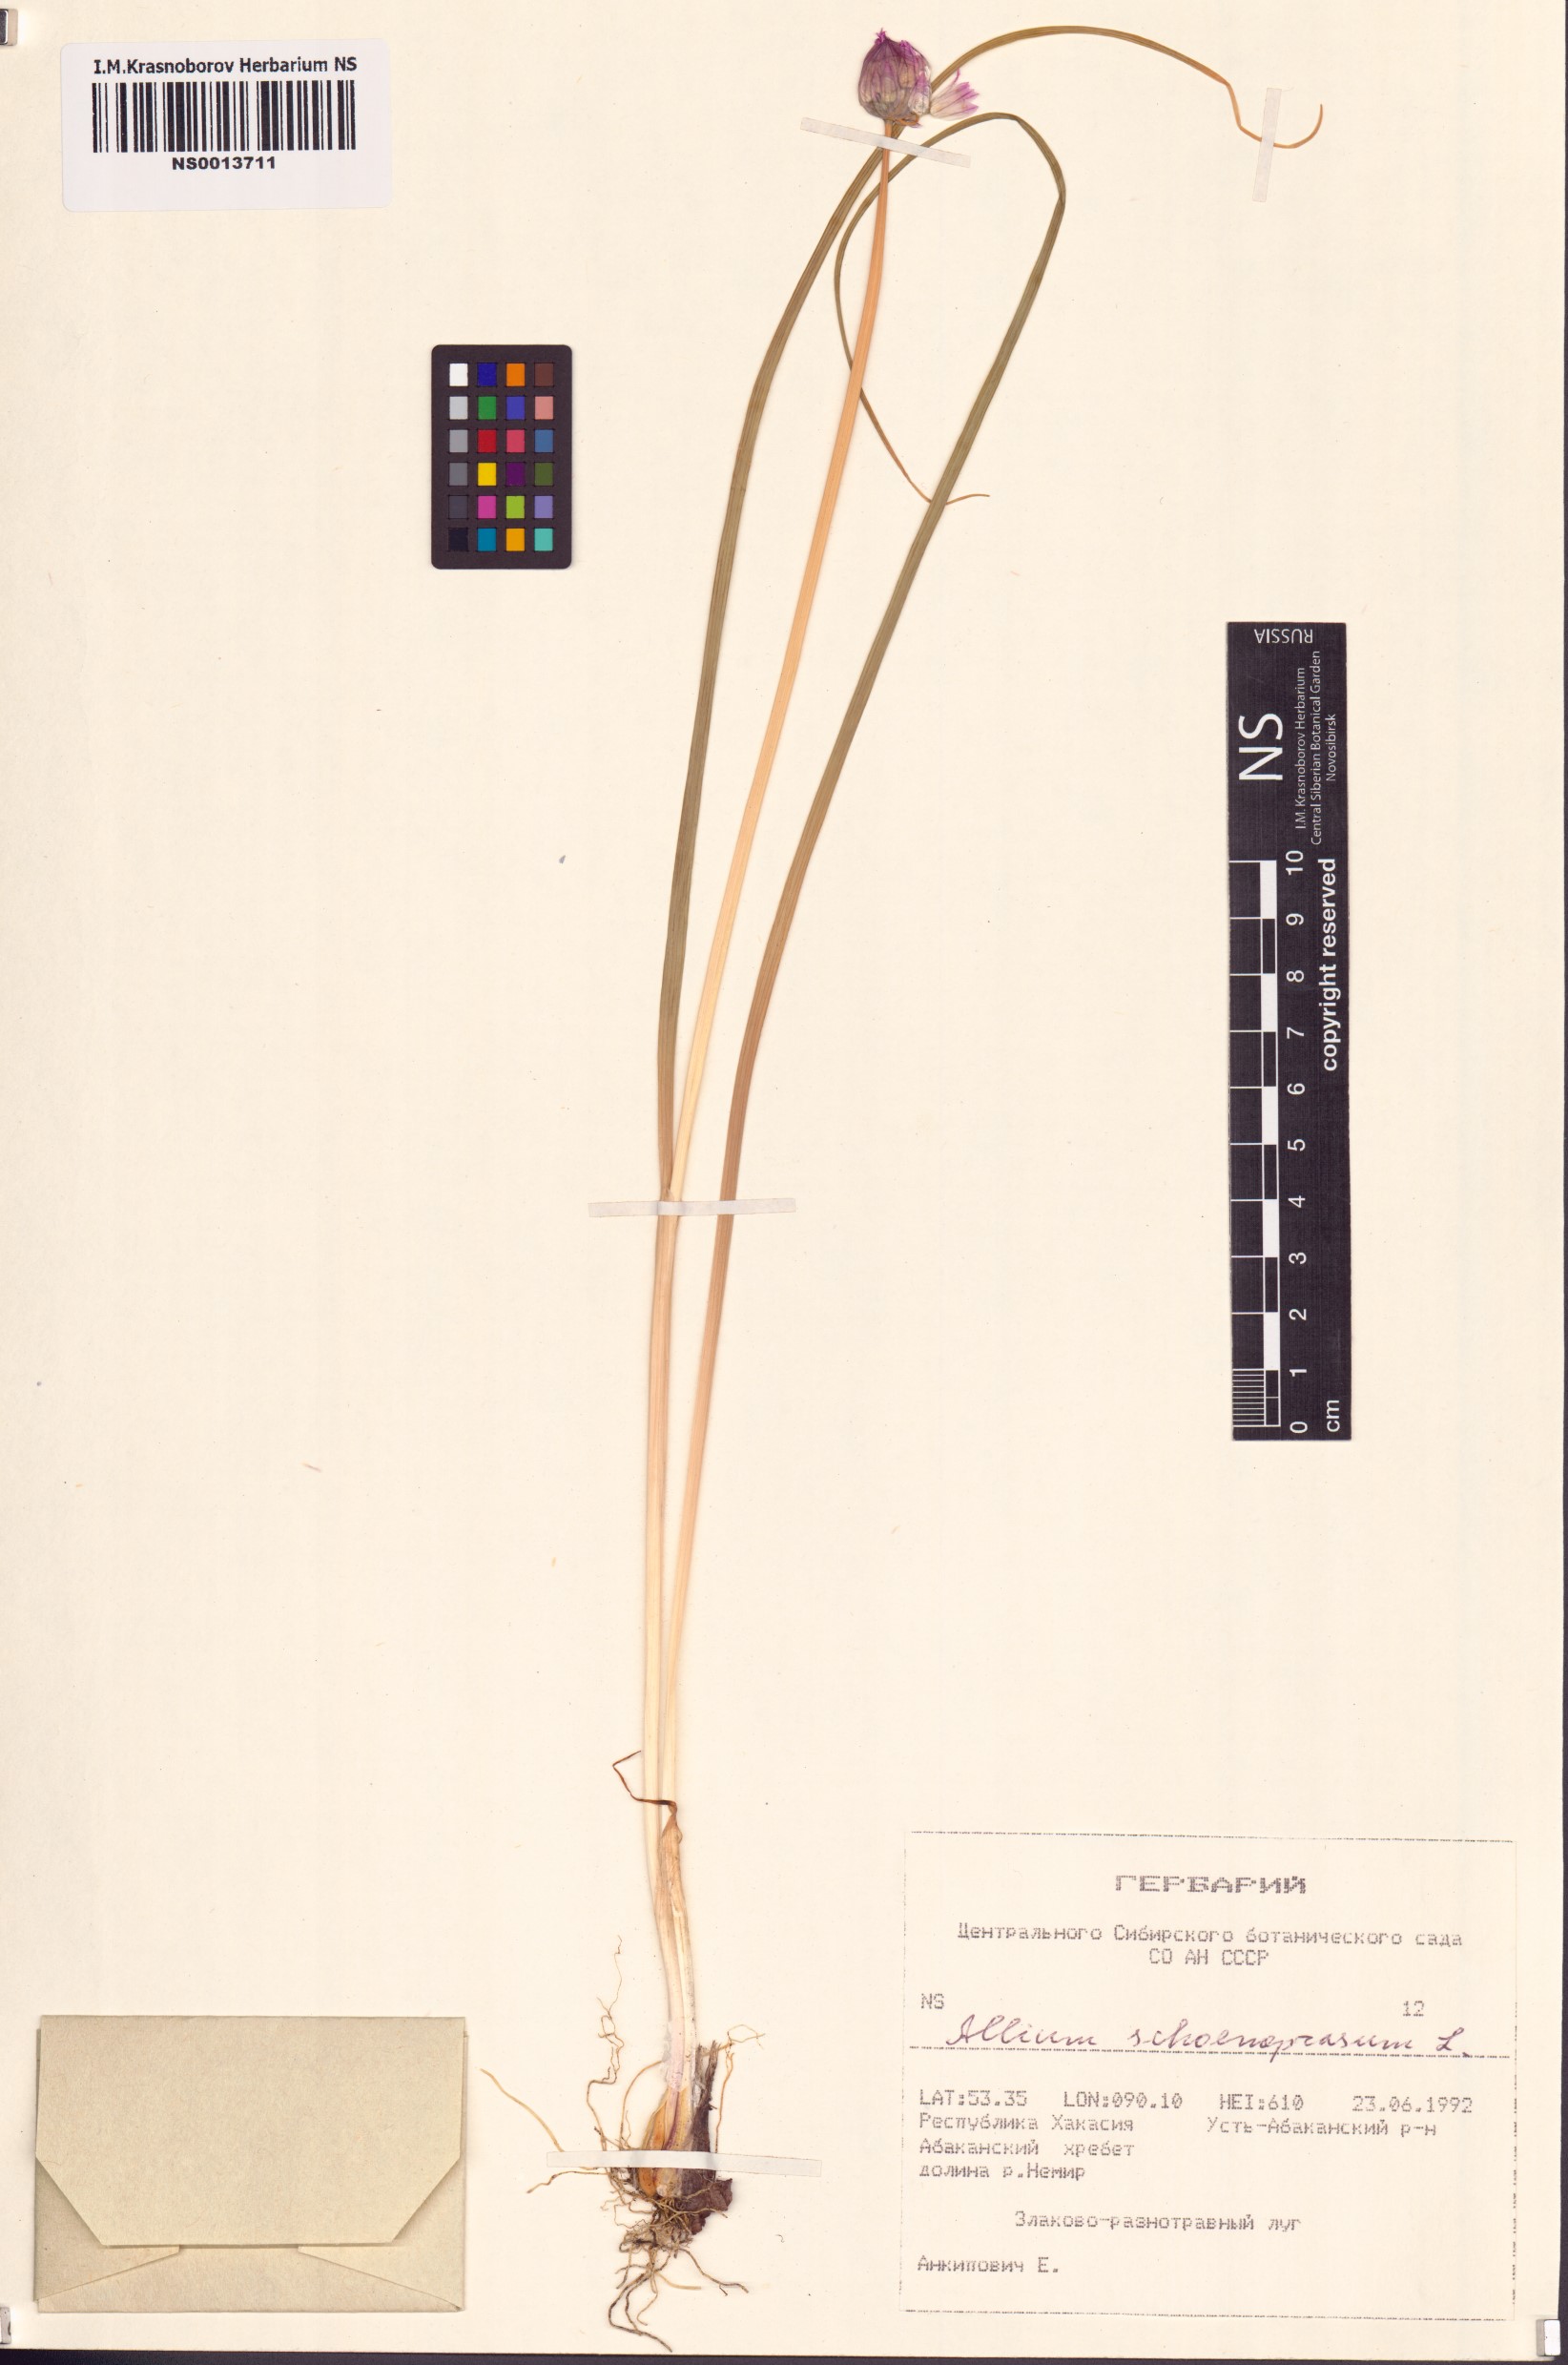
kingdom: Plantae
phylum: Tracheophyta
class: Liliopsida
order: Asparagales
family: Amaryllidaceae
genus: Allium
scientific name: Allium schoenoprasum
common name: Chives
